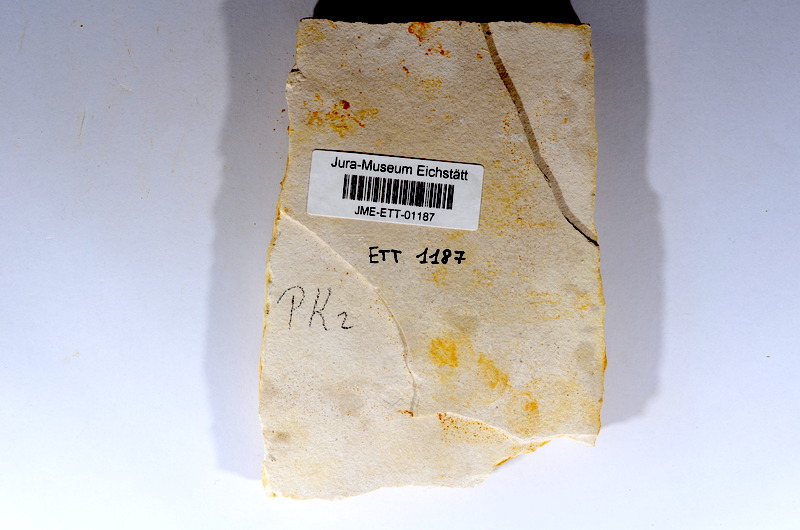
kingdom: Animalia
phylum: Chordata
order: Salmoniformes
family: Orthogonikleithridae
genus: Orthogonikleithrus
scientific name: Orthogonikleithrus hoelli
